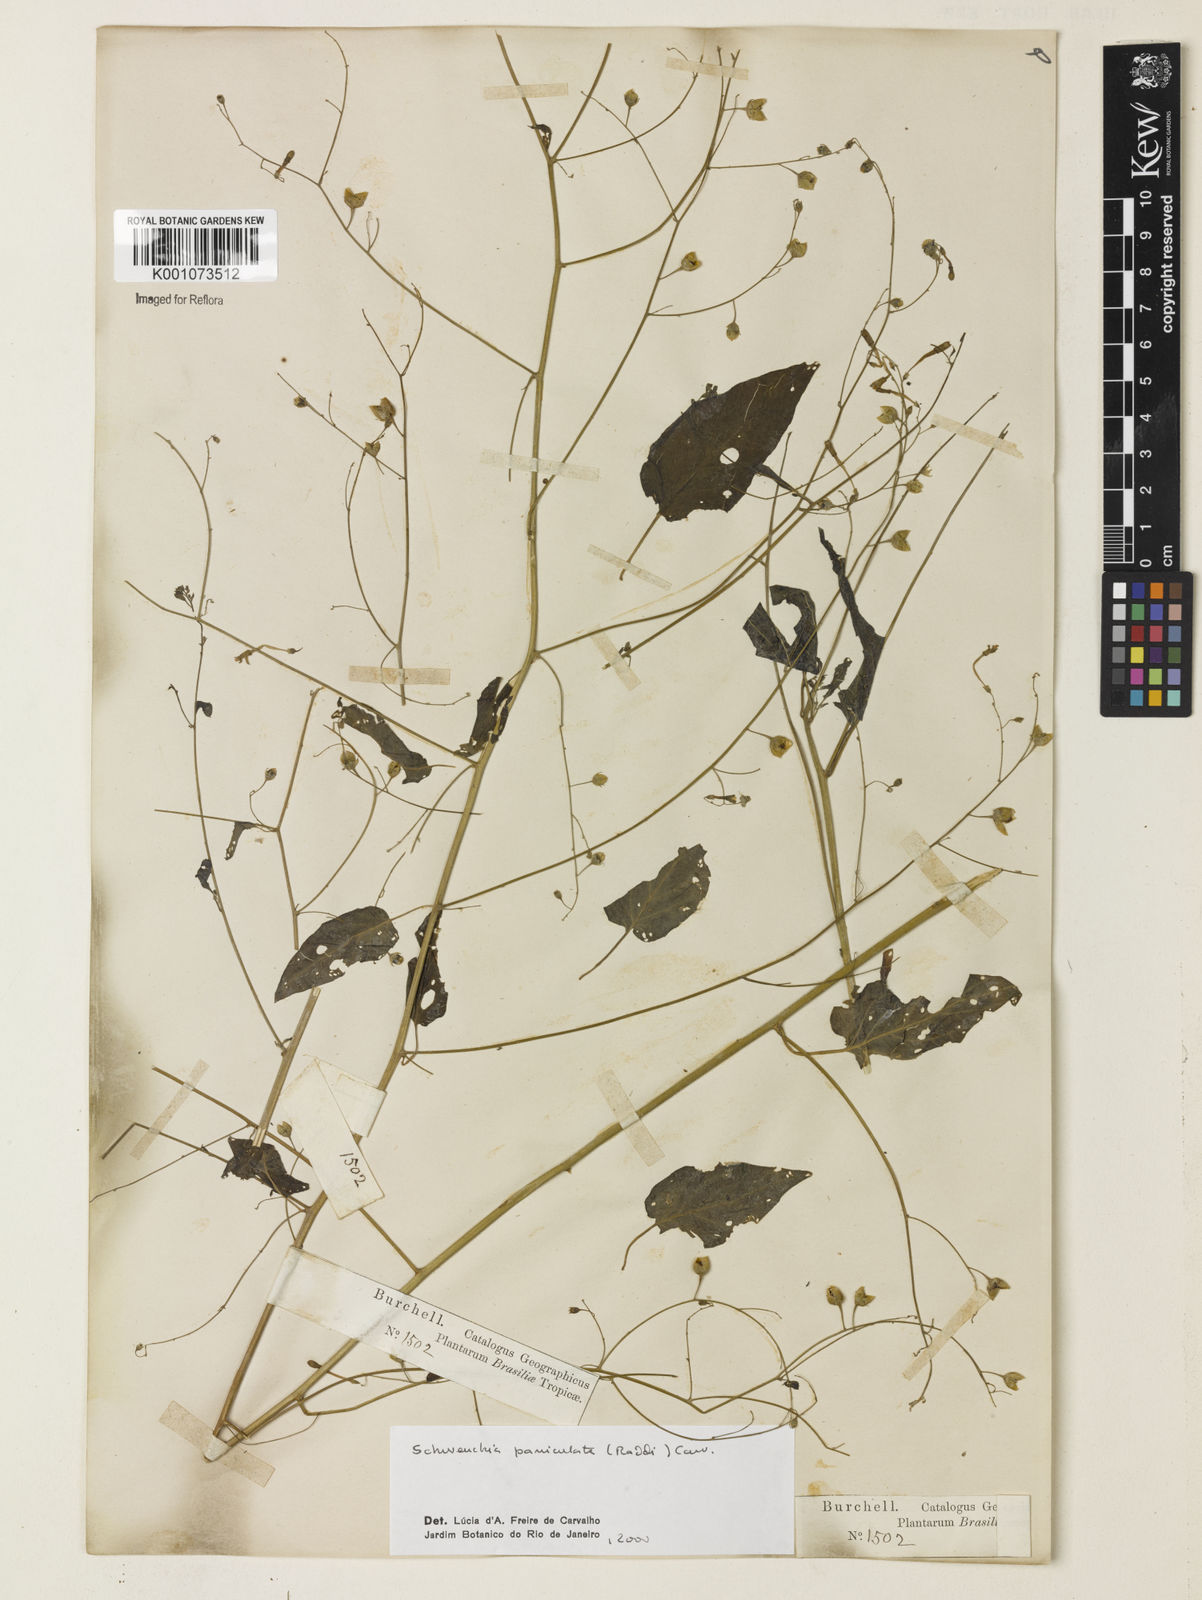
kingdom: Plantae
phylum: Tracheophyta
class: Magnoliopsida
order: Solanales
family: Solanaceae
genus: Schwenckia
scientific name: Schwenckia paniculata
